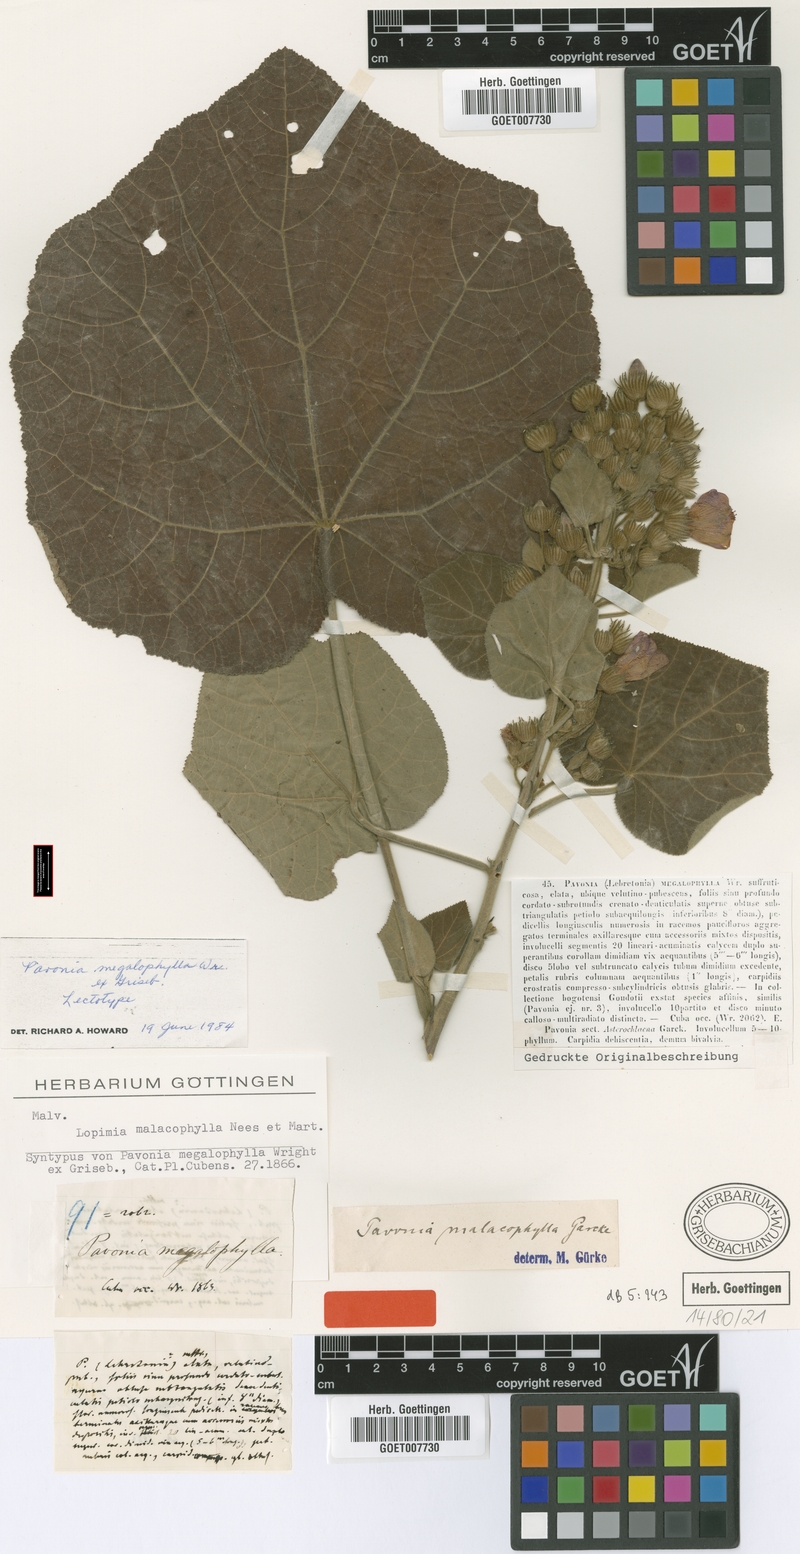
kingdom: Plantae
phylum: Tracheophyta
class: Magnoliopsida
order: Malvales
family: Malvaceae
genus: Pavonia
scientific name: Pavonia malacophylla
